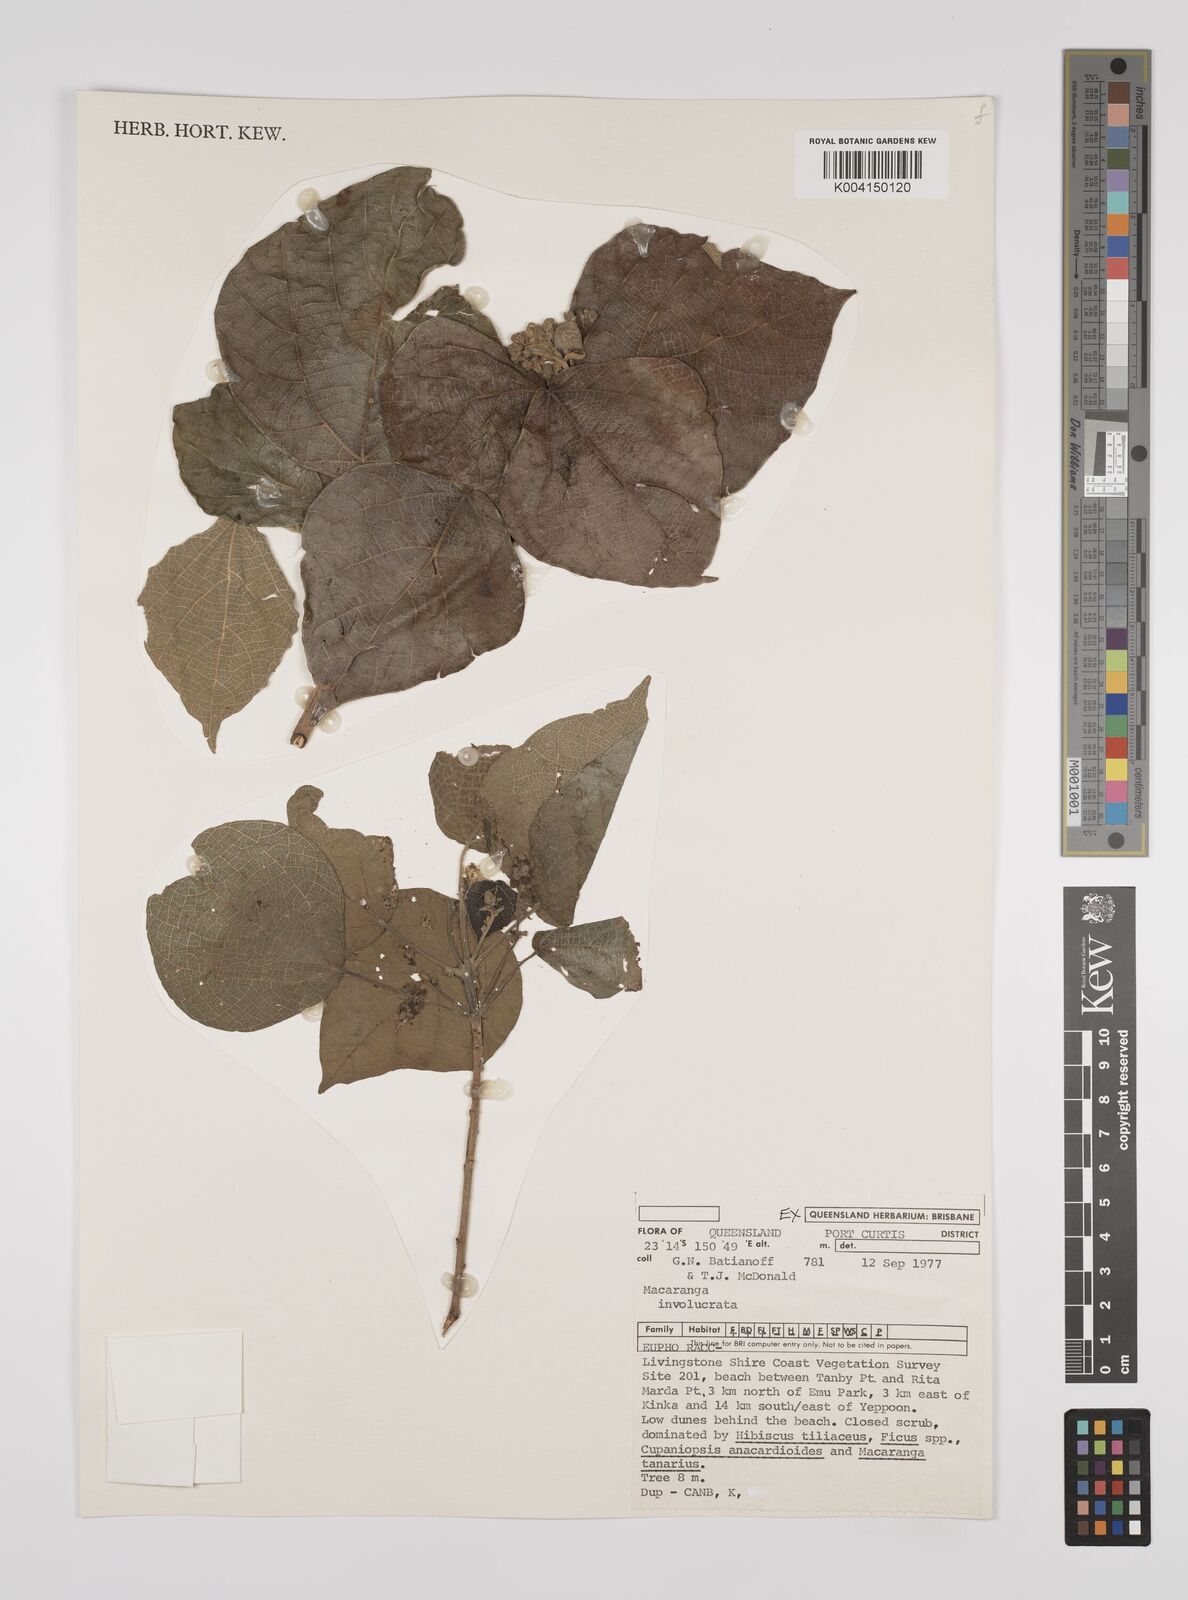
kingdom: Plantae
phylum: Tracheophyta
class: Magnoliopsida
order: Malpighiales
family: Euphorbiaceae
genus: Macaranga
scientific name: Macaranga involucrata
